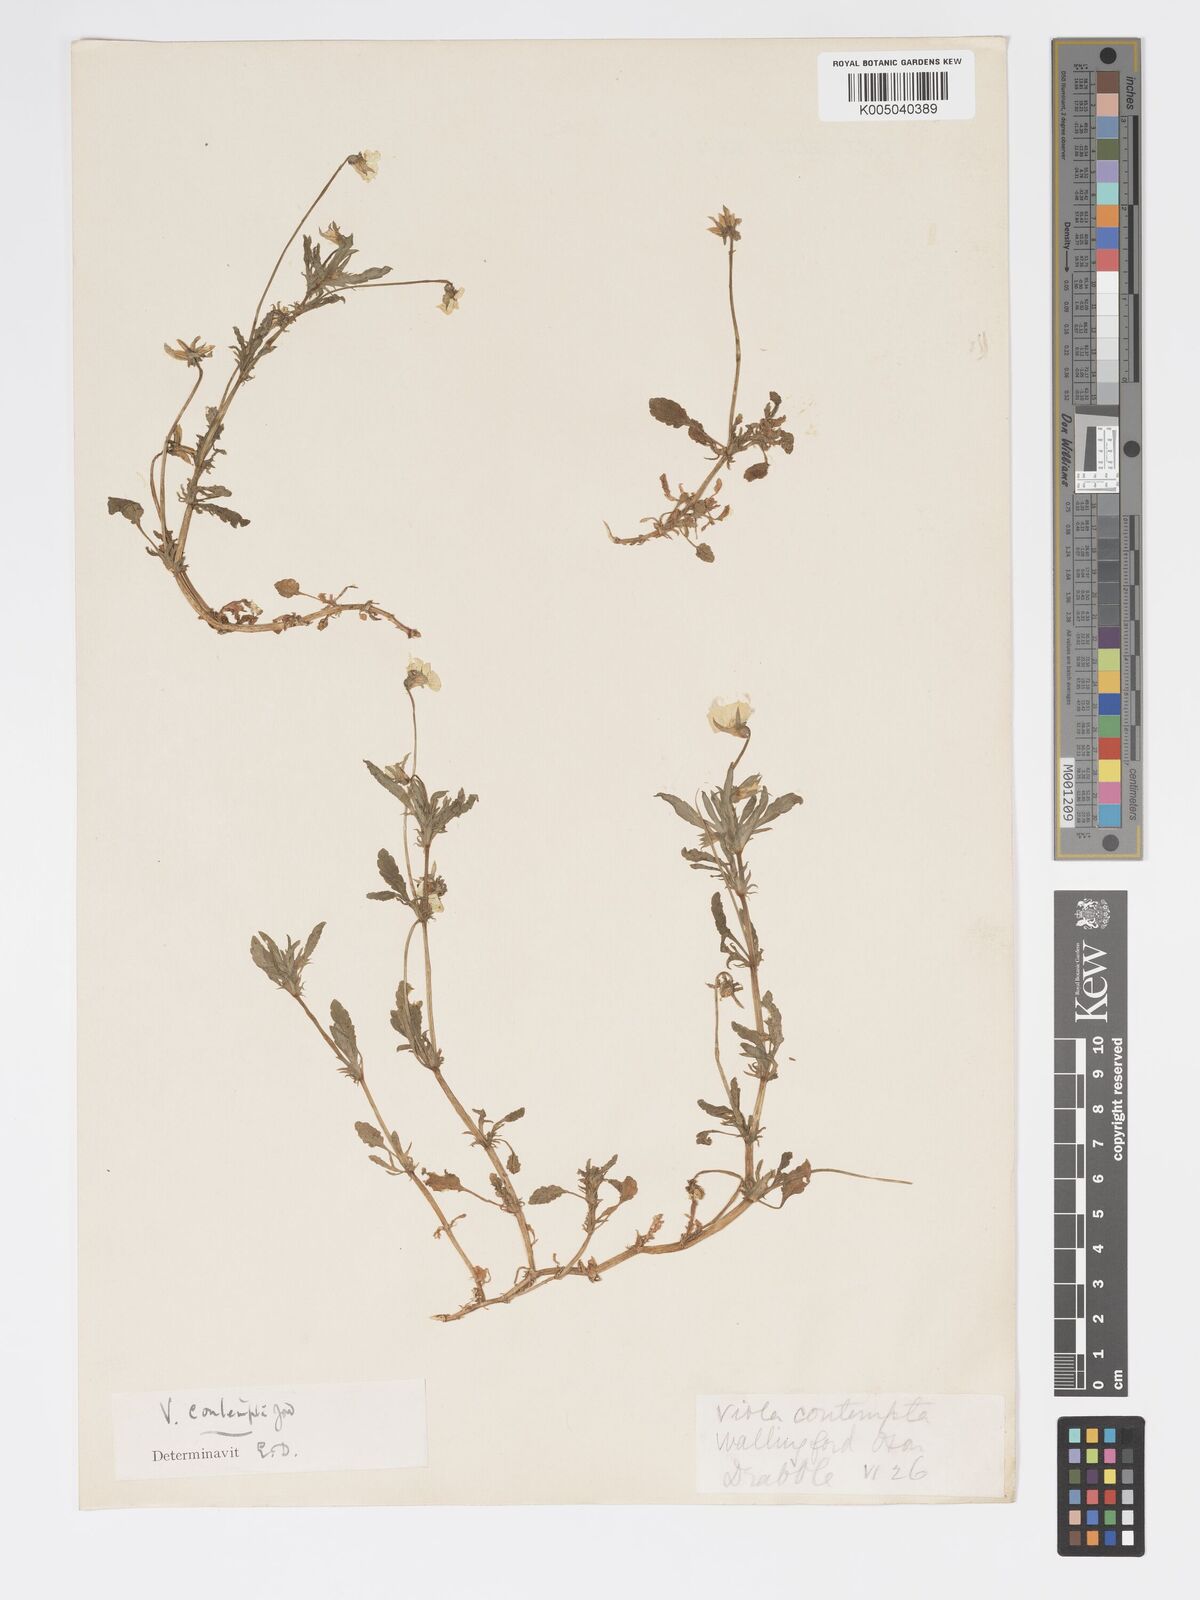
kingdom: Plantae
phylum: Tracheophyta
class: Magnoliopsida
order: Malpighiales
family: Violaceae
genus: Viola
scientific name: Viola arvensis
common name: Field pansy
